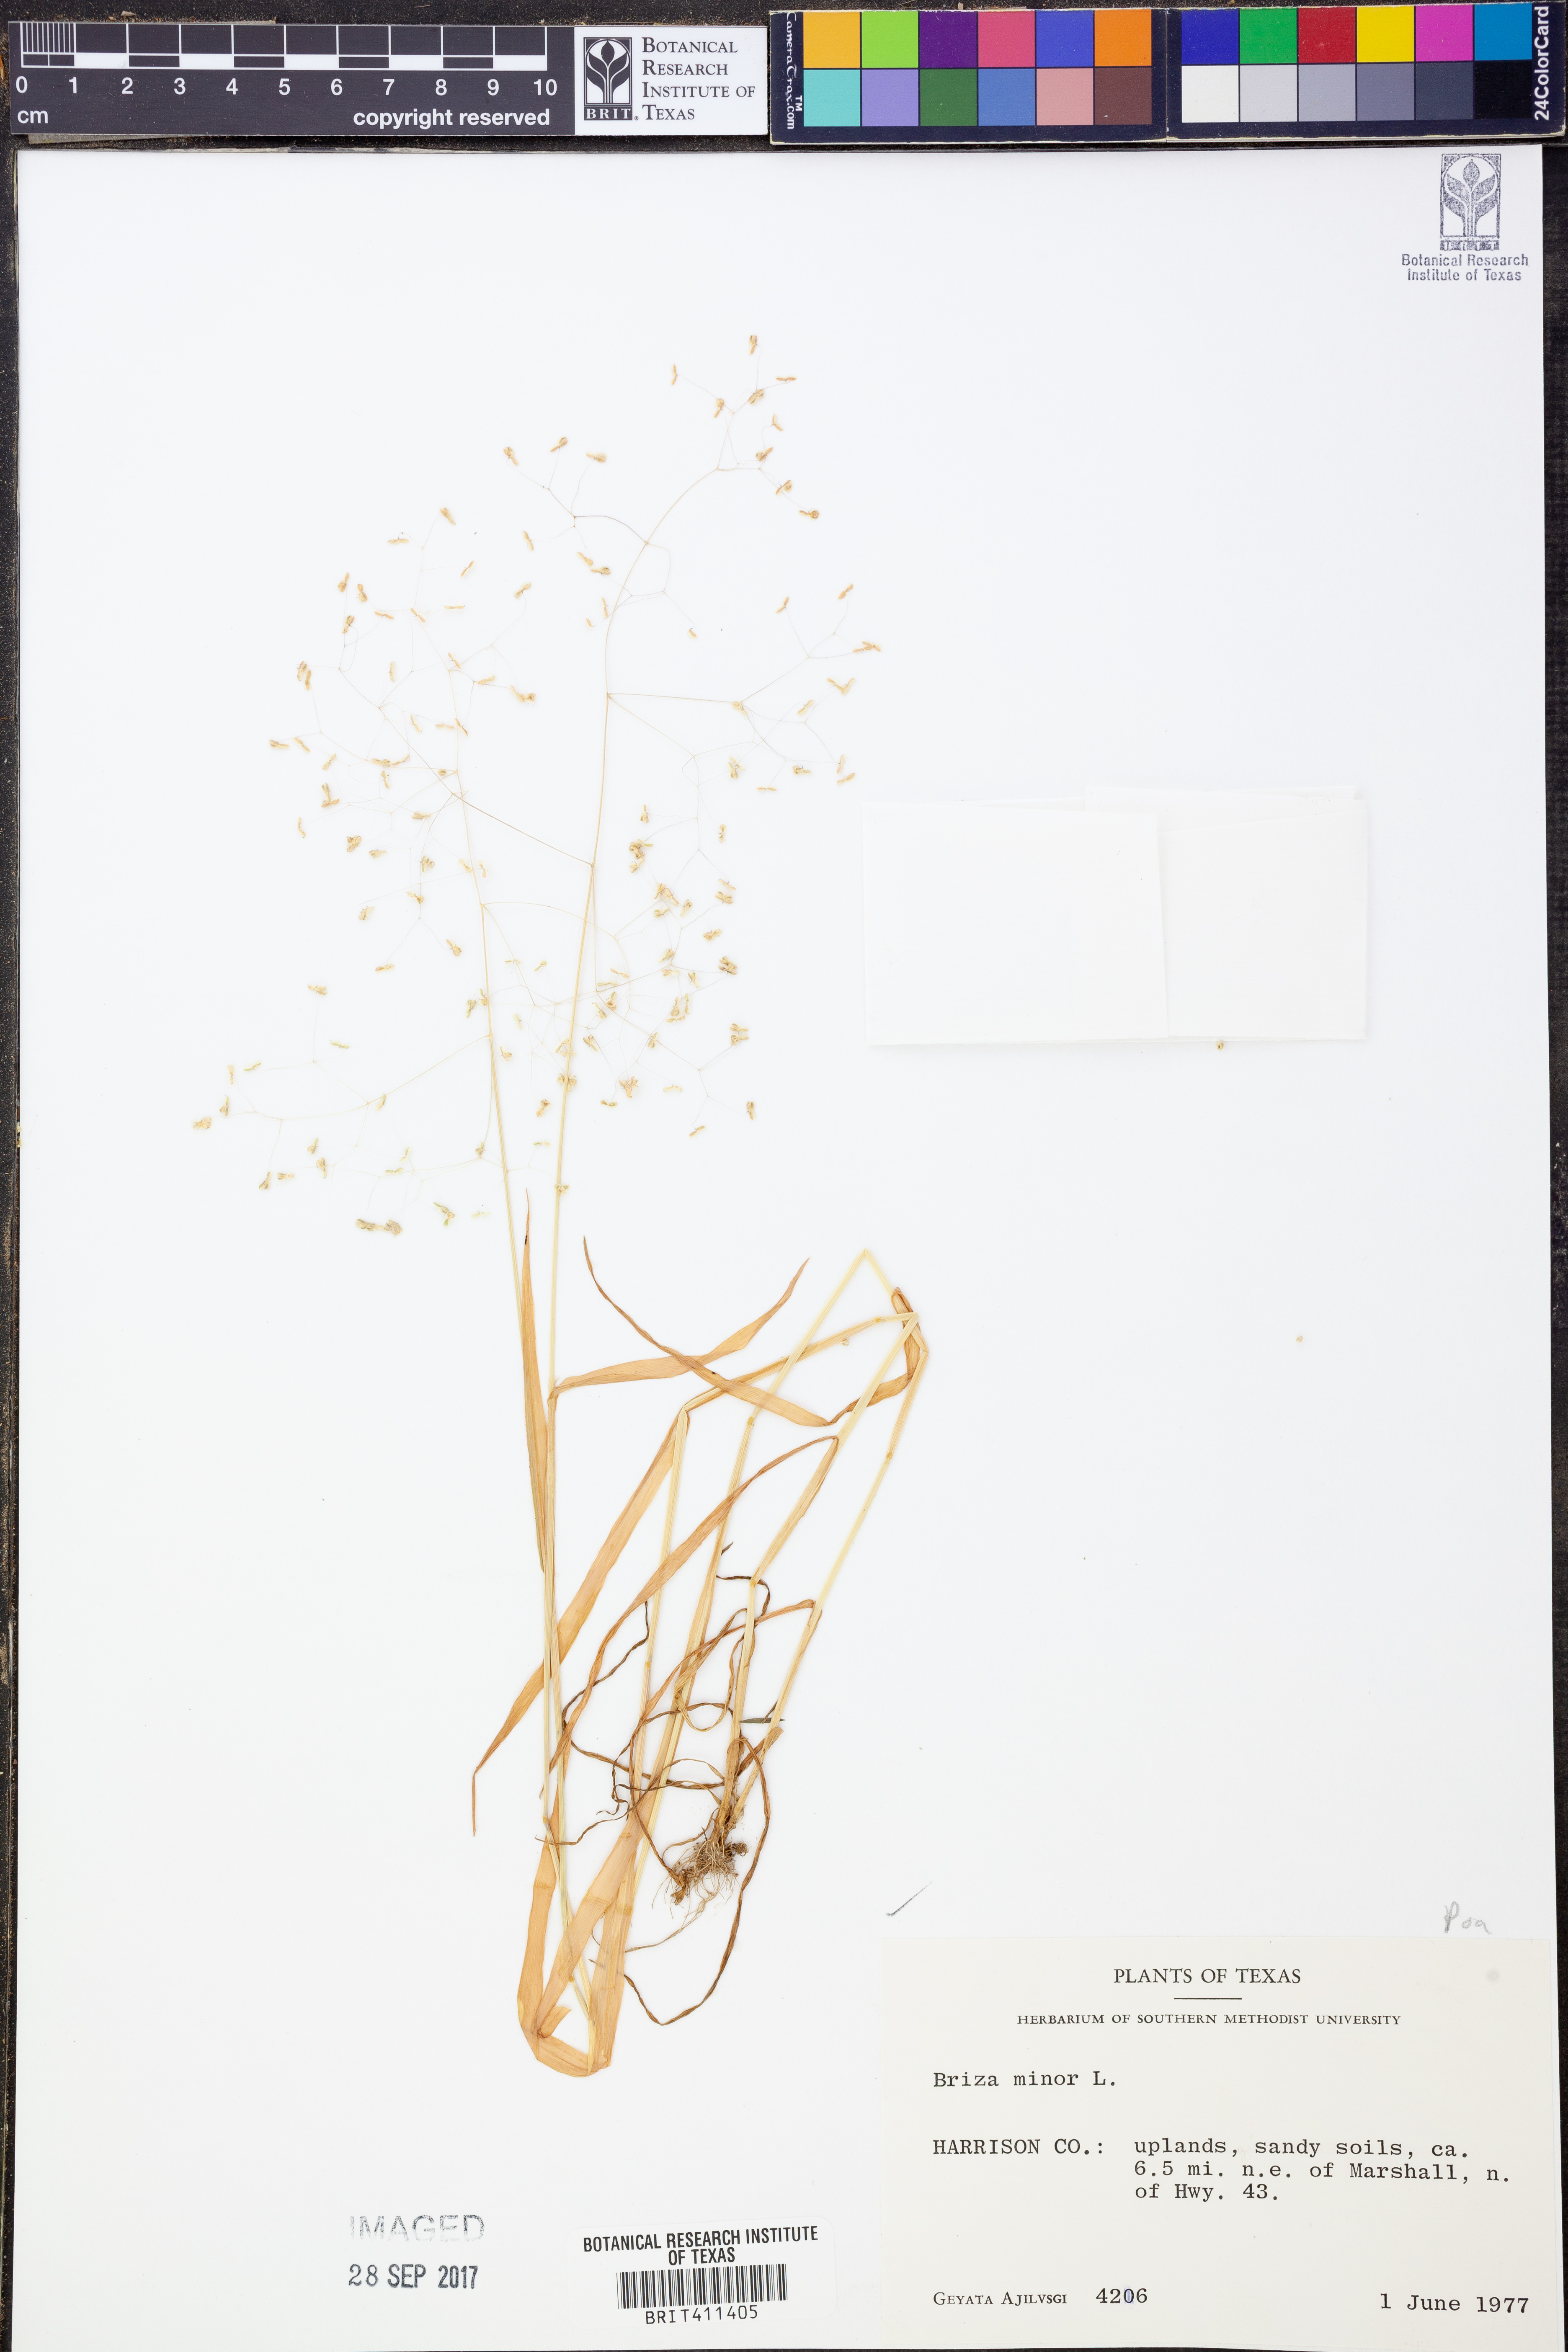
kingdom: Plantae
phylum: Tracheophyta
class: Liliopsida
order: Poales
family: Poaceae
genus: Briza
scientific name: Briza minor
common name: Lesser quaking-grass
